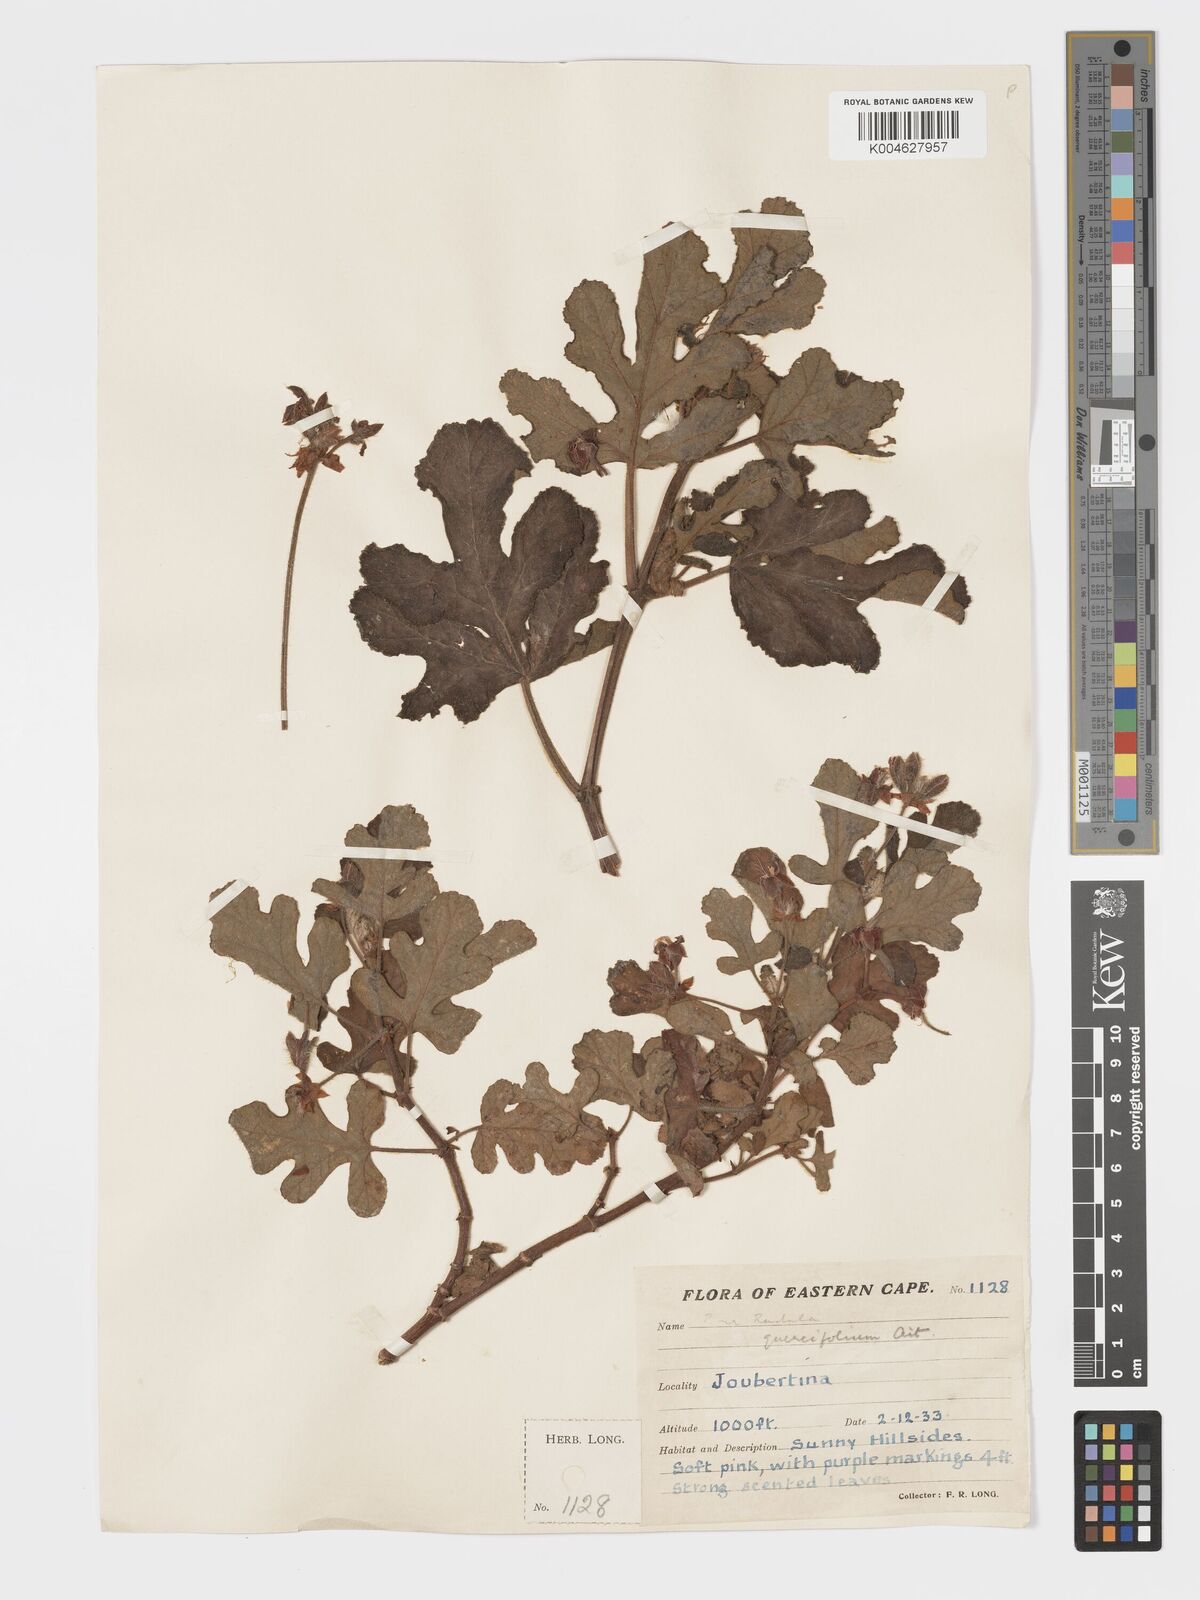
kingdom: Plantae
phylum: Tracheophyta
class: Magnoliopsida
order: Geraniales
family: Geraniaceae
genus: Pelargonium
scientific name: Pelargonium quercifolium
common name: Oakleaf geranium
